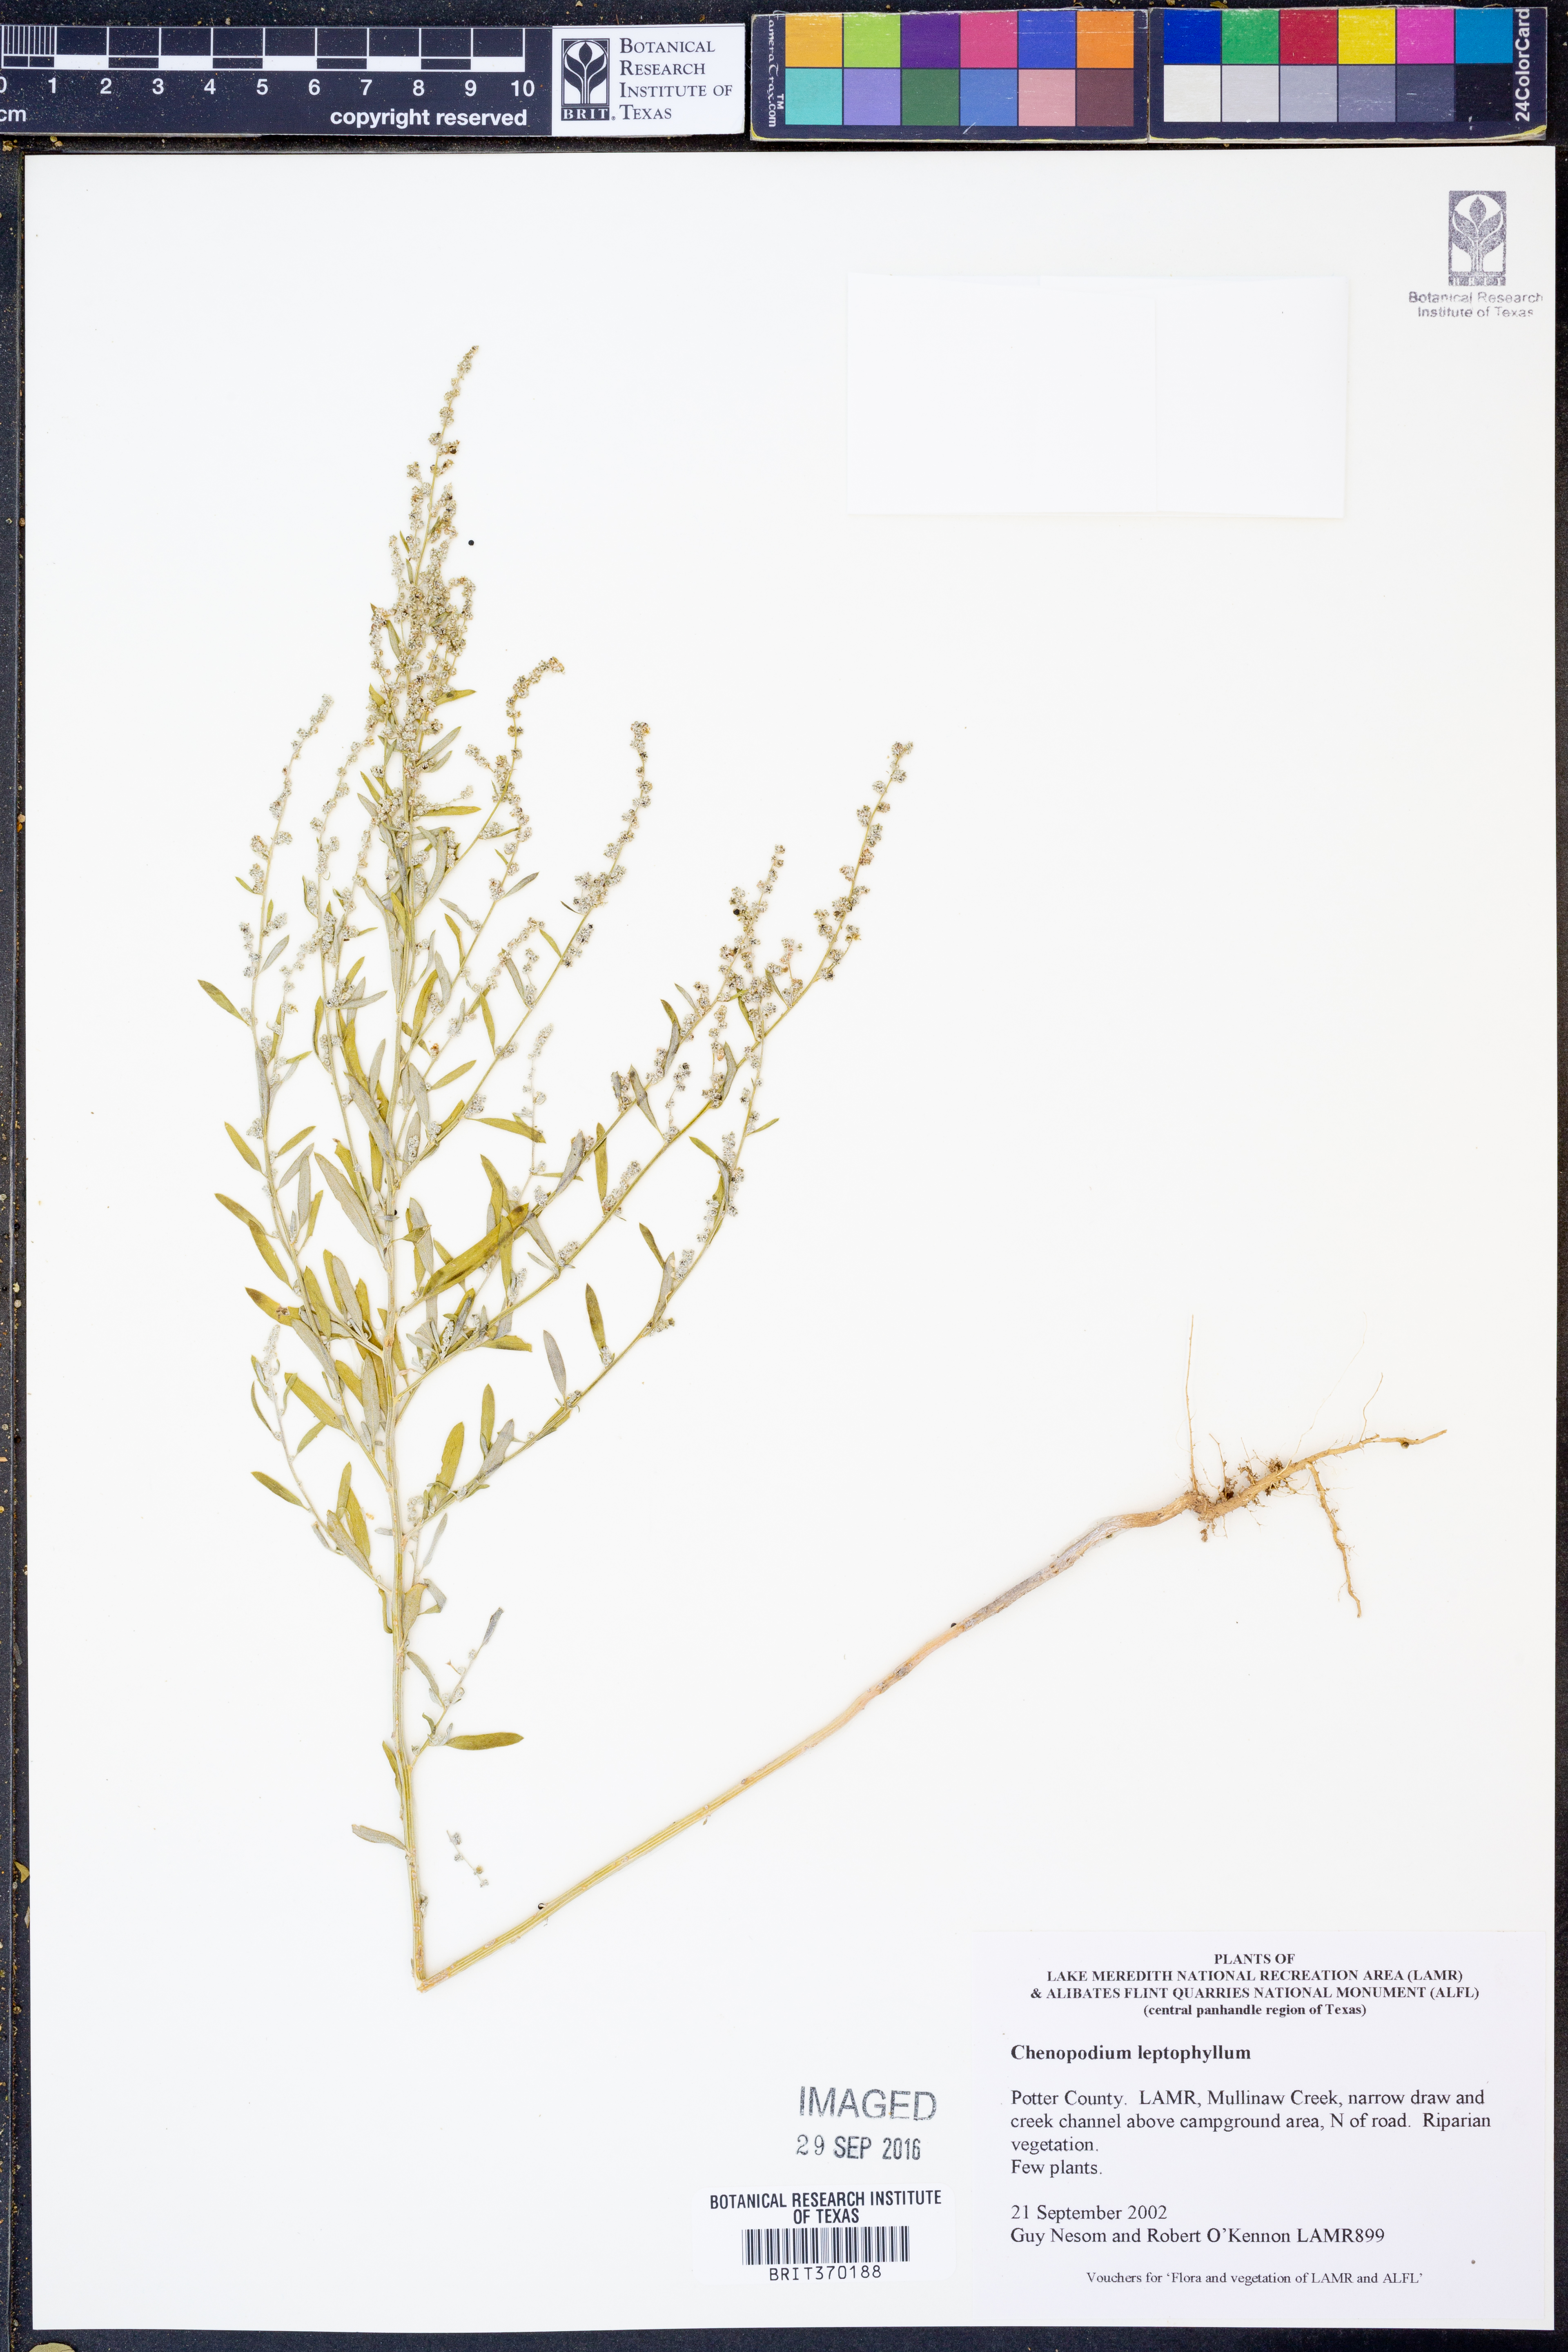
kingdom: Plantae
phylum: Tracheophyta
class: Magnoliopsida
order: Caryophyllales
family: Amaranthaceae
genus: Chenopodium
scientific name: Chenopodium leptophyllum
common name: Narrow-leaf goosefoot
